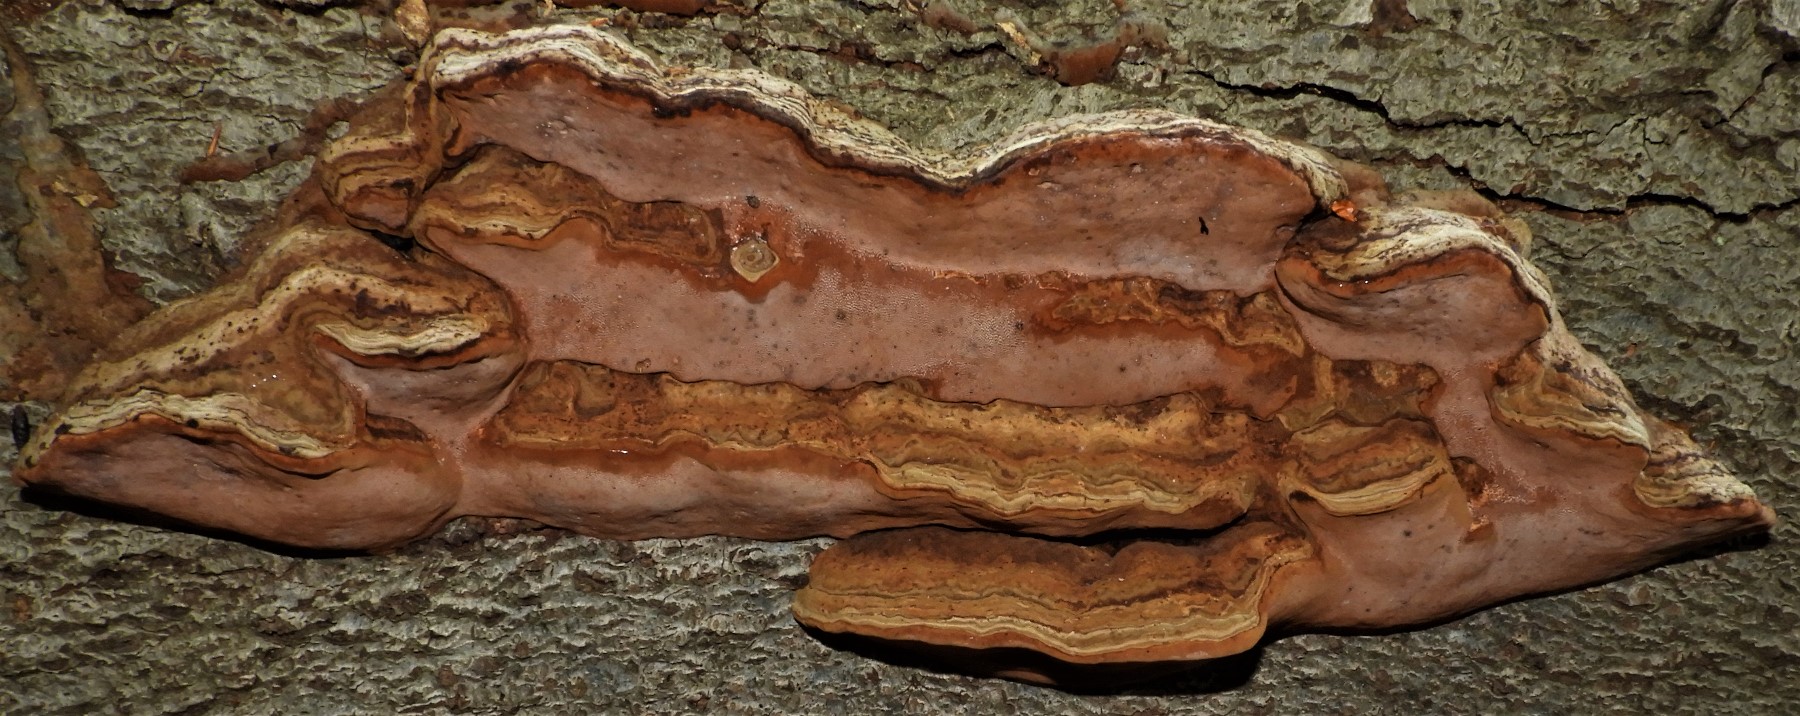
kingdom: Fungi
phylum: Basidiomycota
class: Agaricomycetes
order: Polyporales
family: Polyporaceae
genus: Fomes
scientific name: Fomes fomentarius
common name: tøndersvamp
